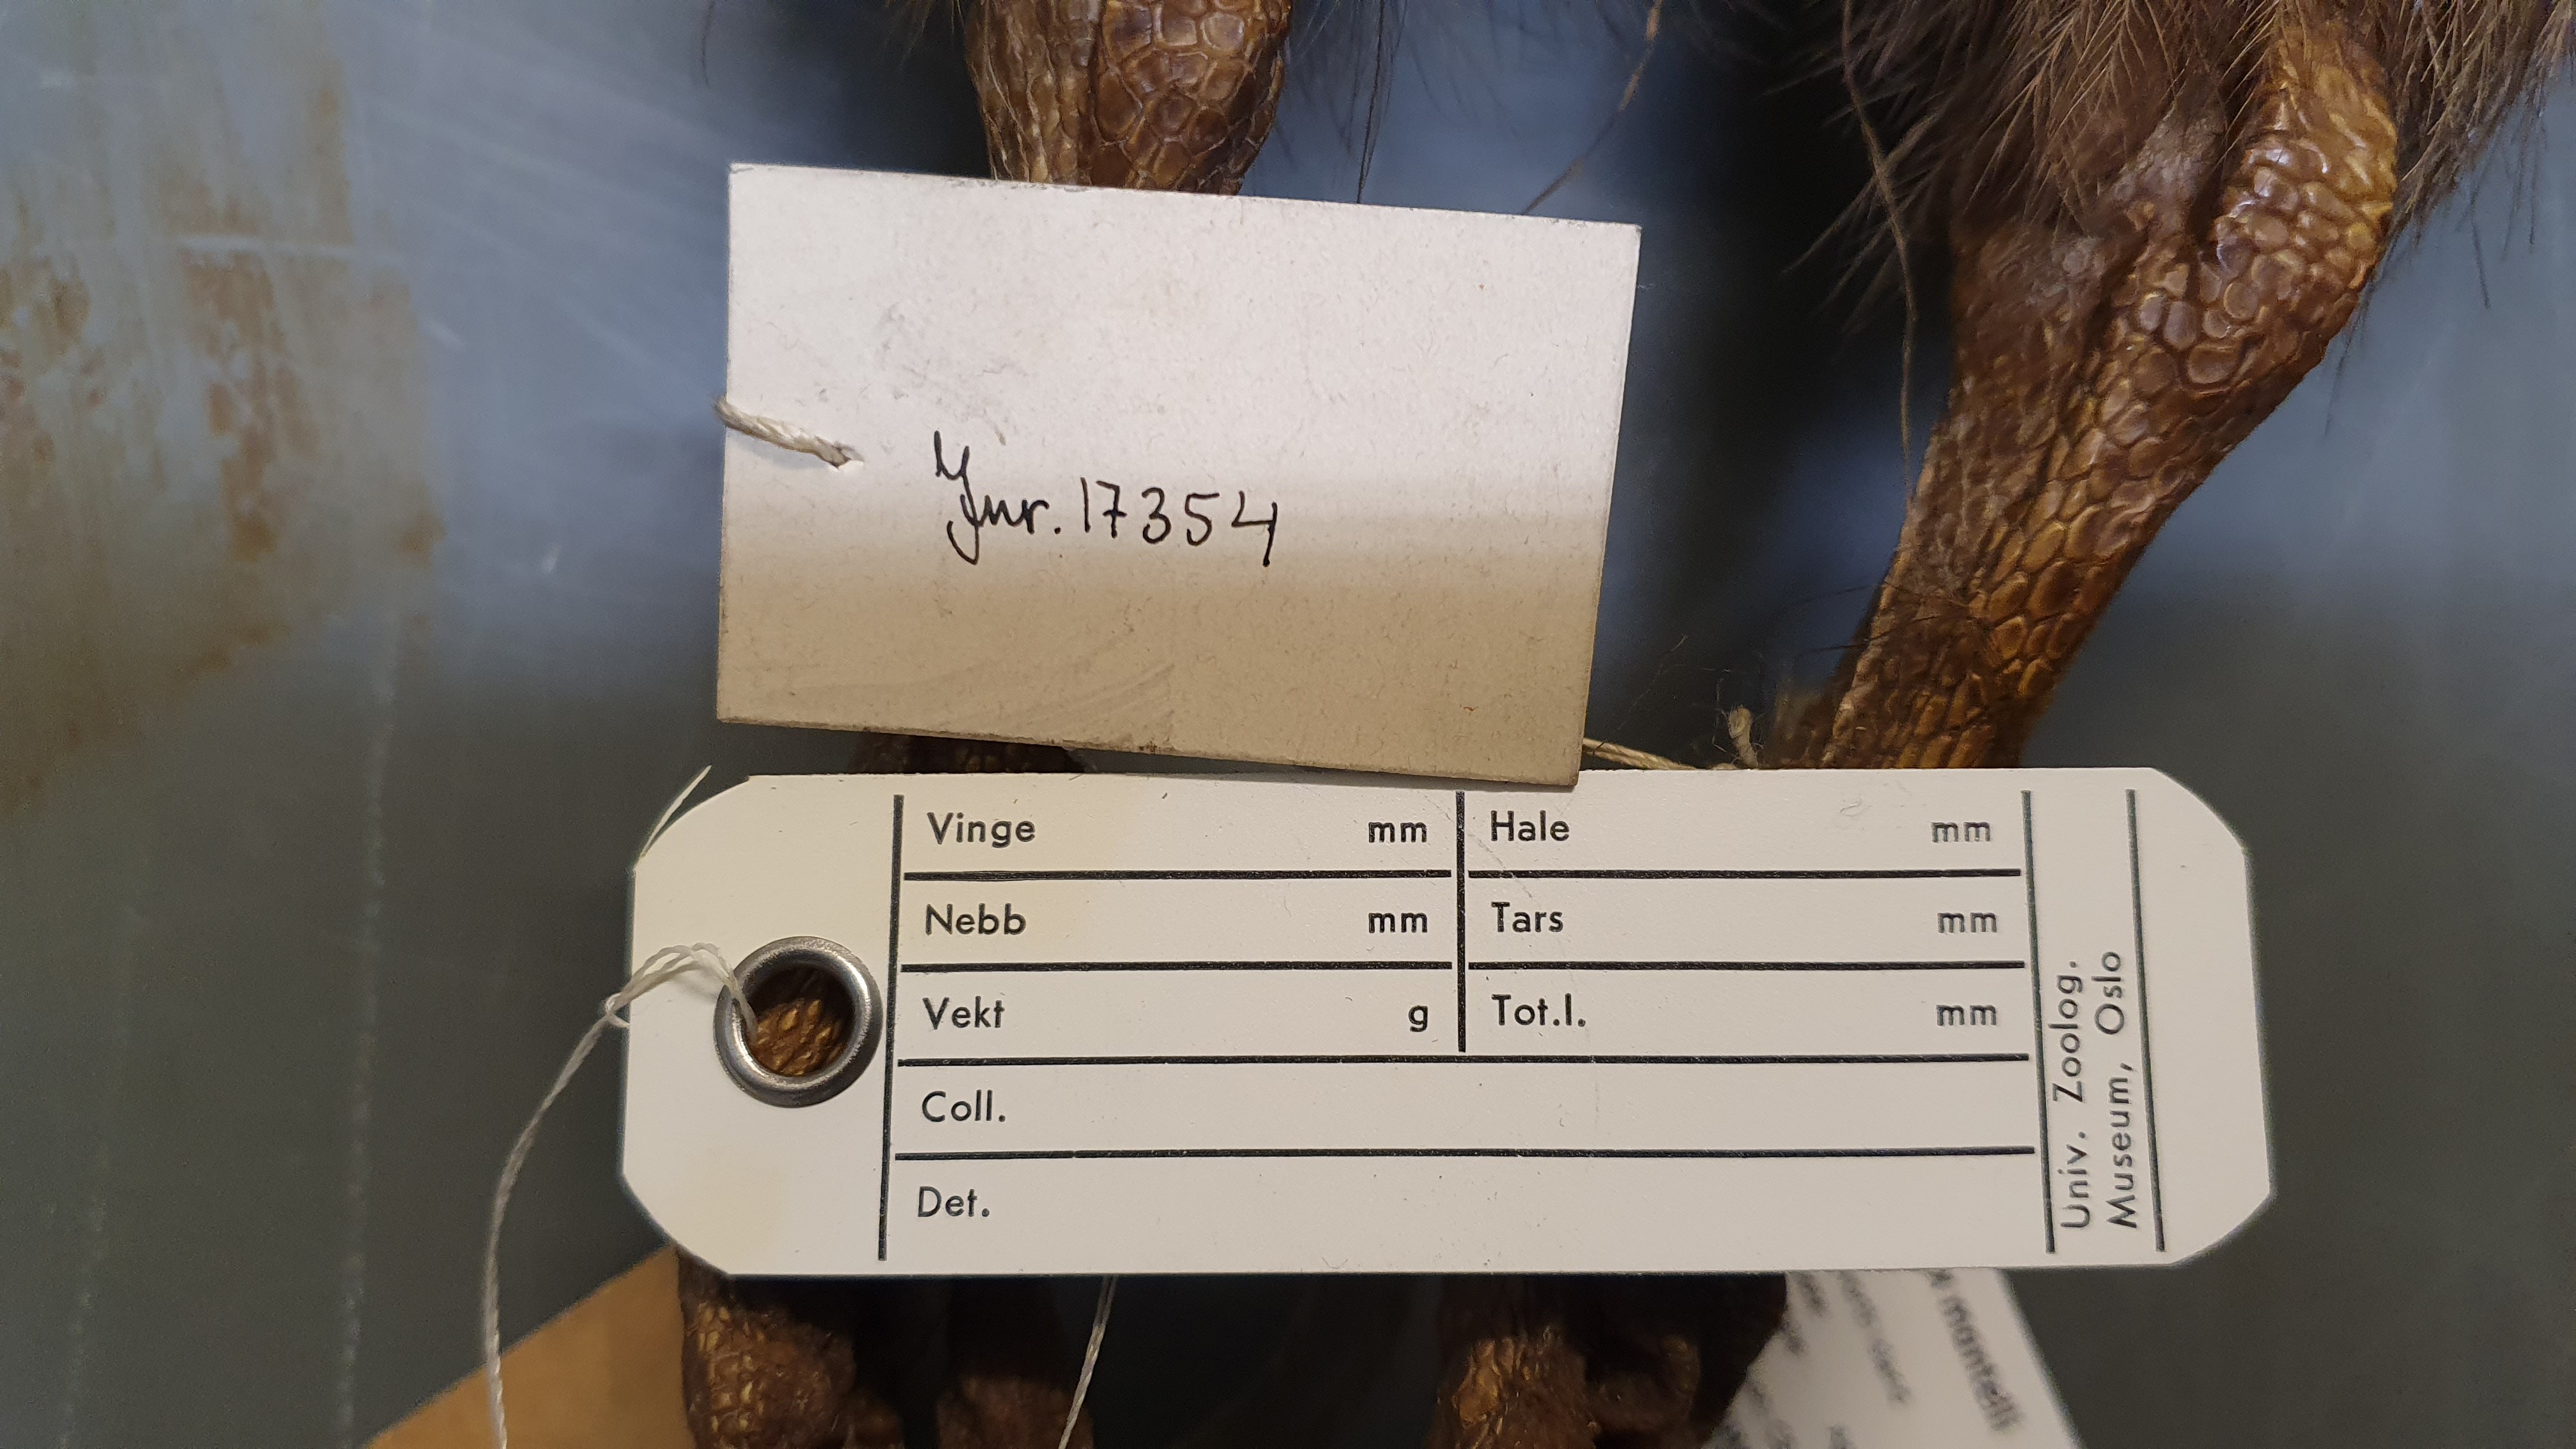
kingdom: Animalia
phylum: Chordata
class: Aves
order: Apterygiformes
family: Apterygidae
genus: Apteryx
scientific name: Apteryx mantelli
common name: North island brown kiwi
